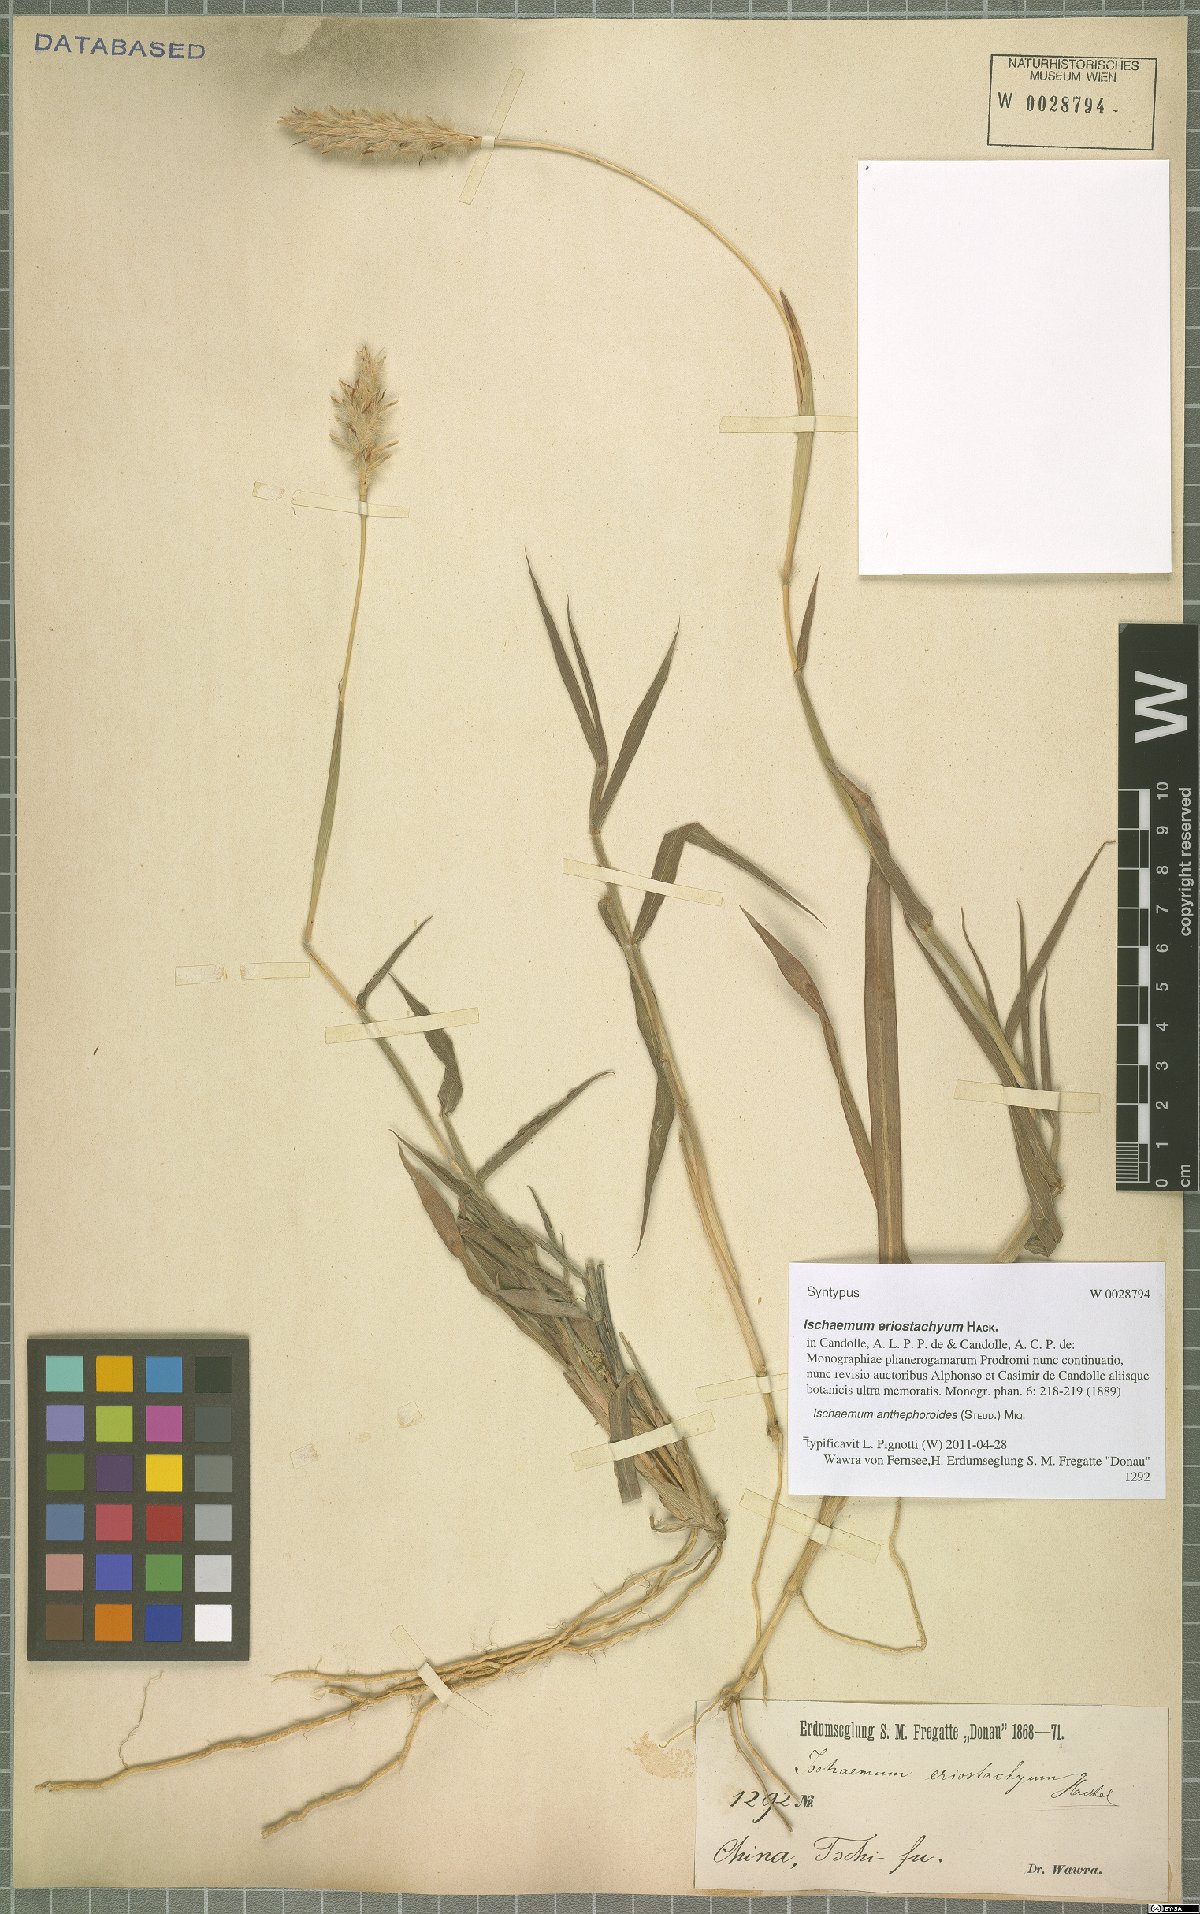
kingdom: Plantae
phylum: Tracheophyta
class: Liliopsida
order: Poales
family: Poaceae
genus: Ischaemum
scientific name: Ischaemum anthephoroides
